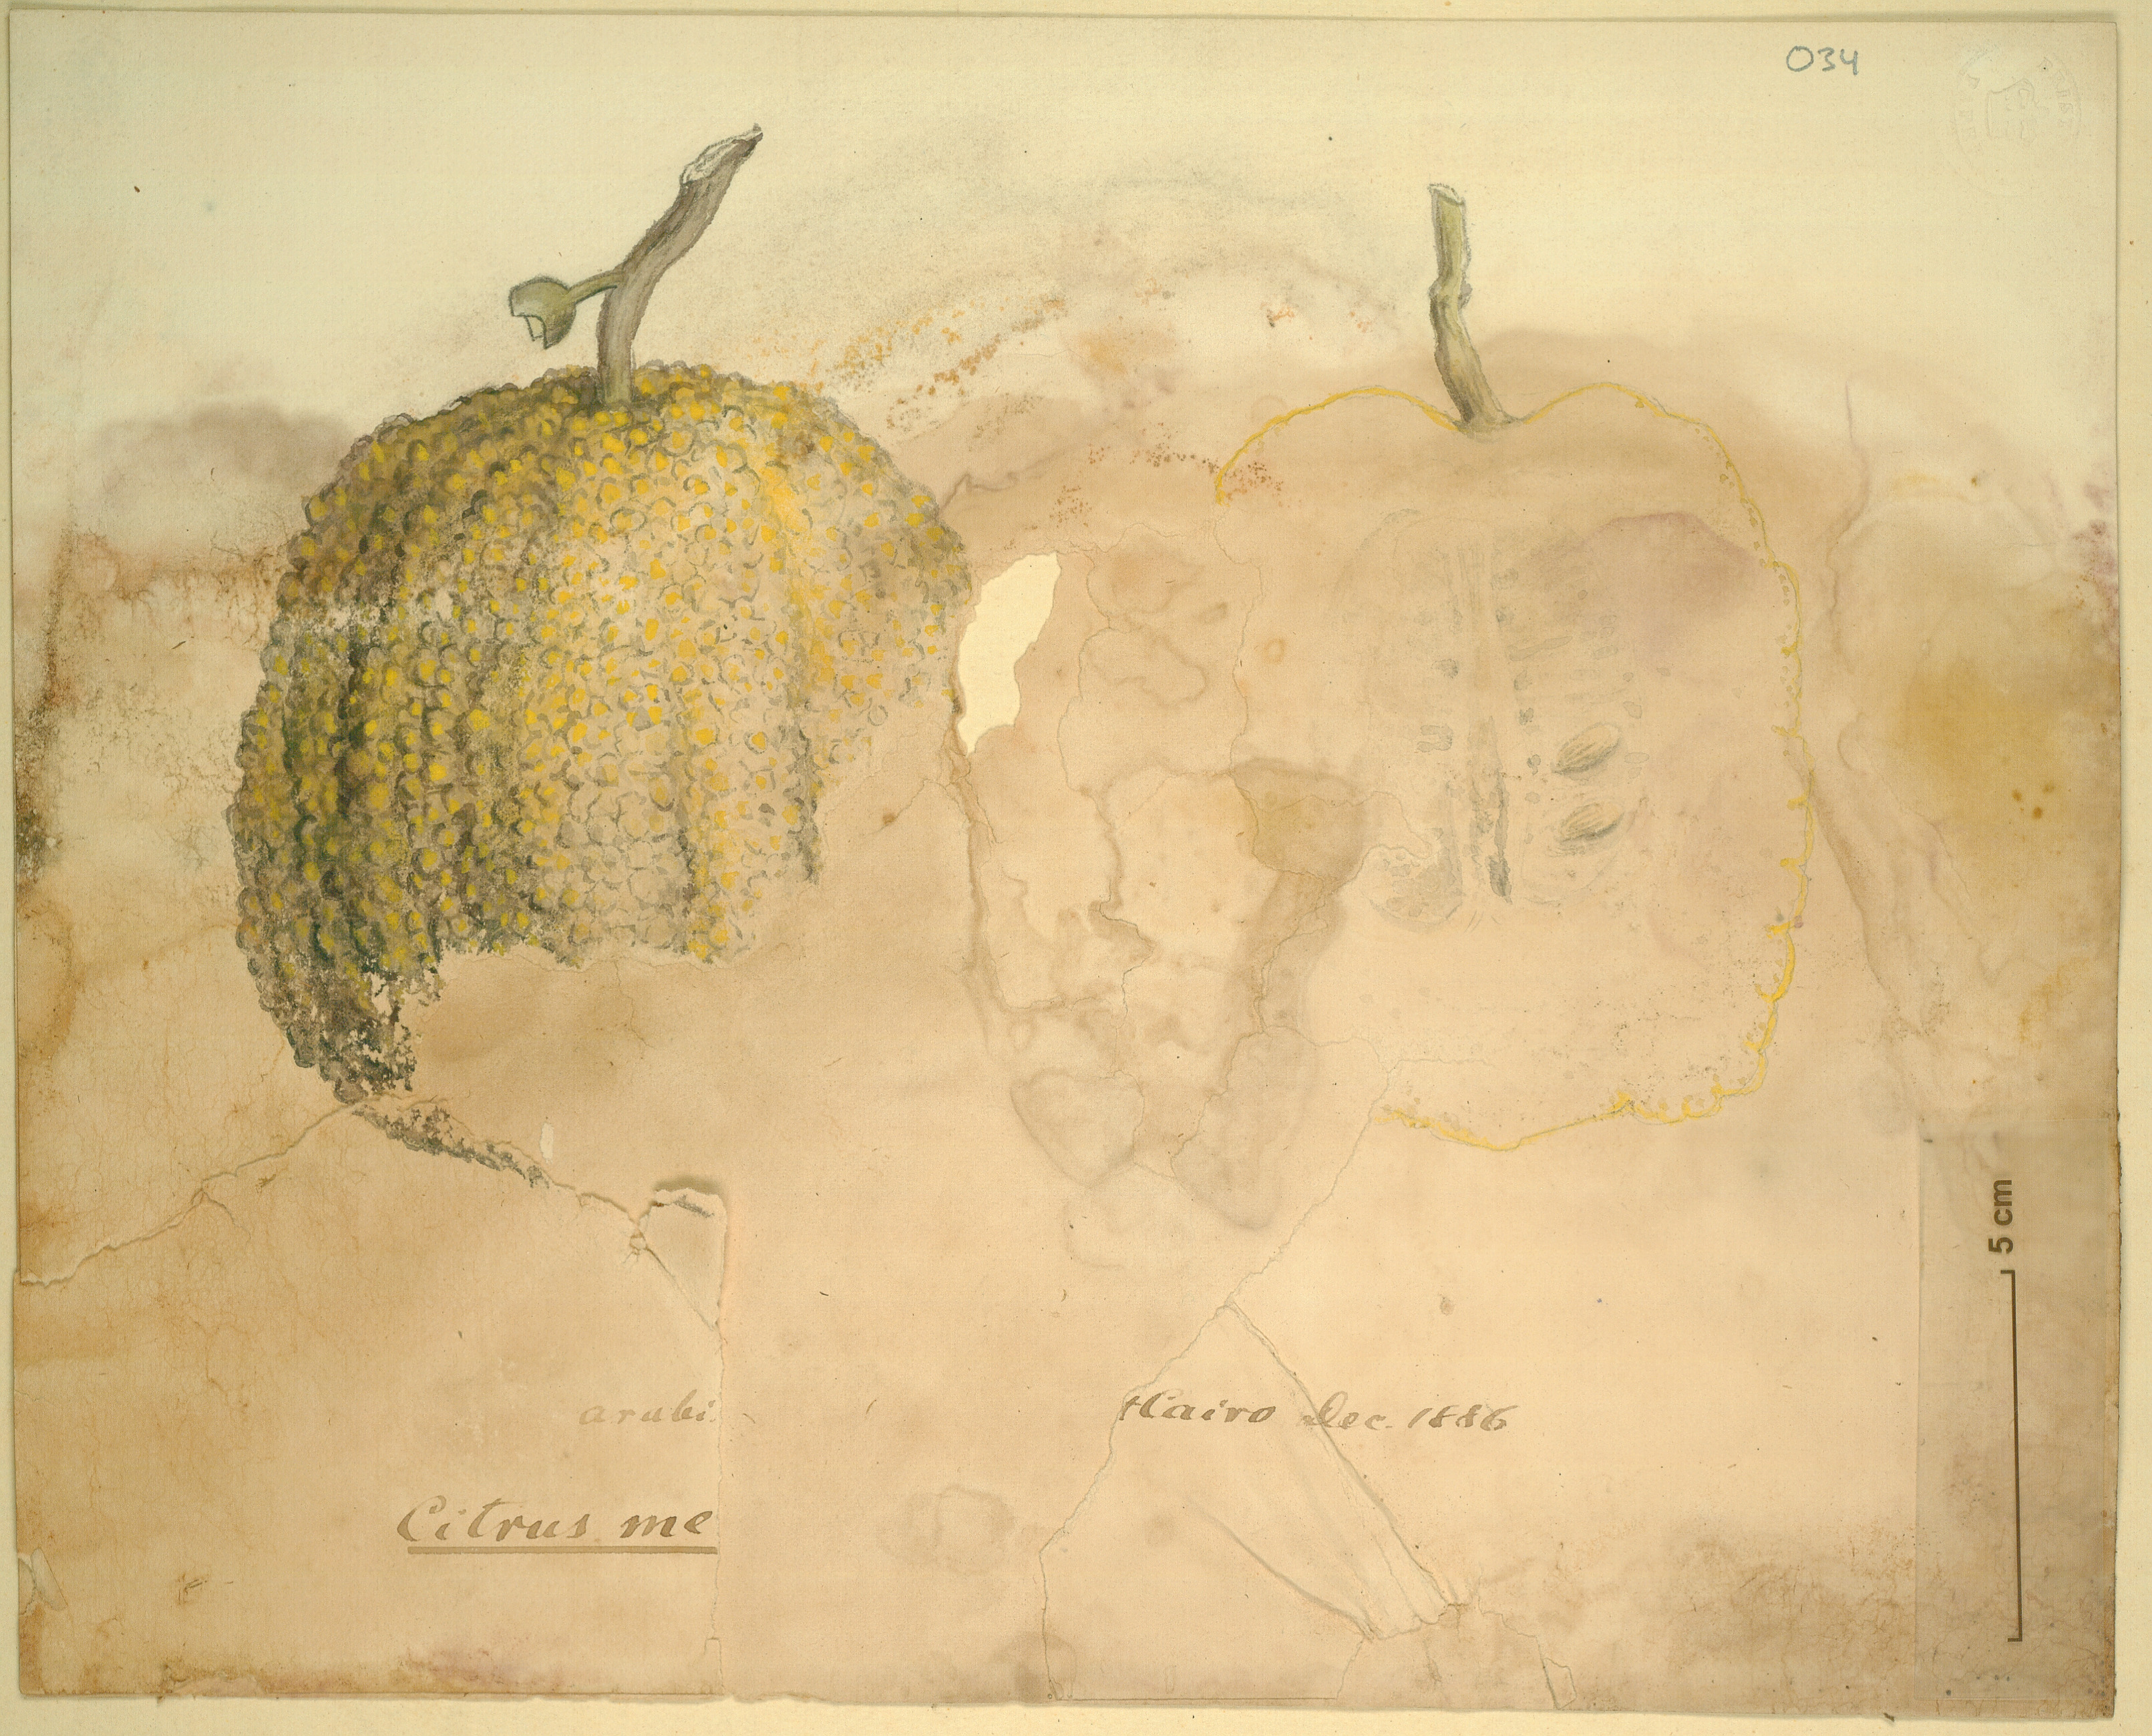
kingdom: Plantae
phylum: Tracheophyta
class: Magnoliopsida
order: Sapindales
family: Rutaceae
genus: Citrus
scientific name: Citrus medica
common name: Citron
